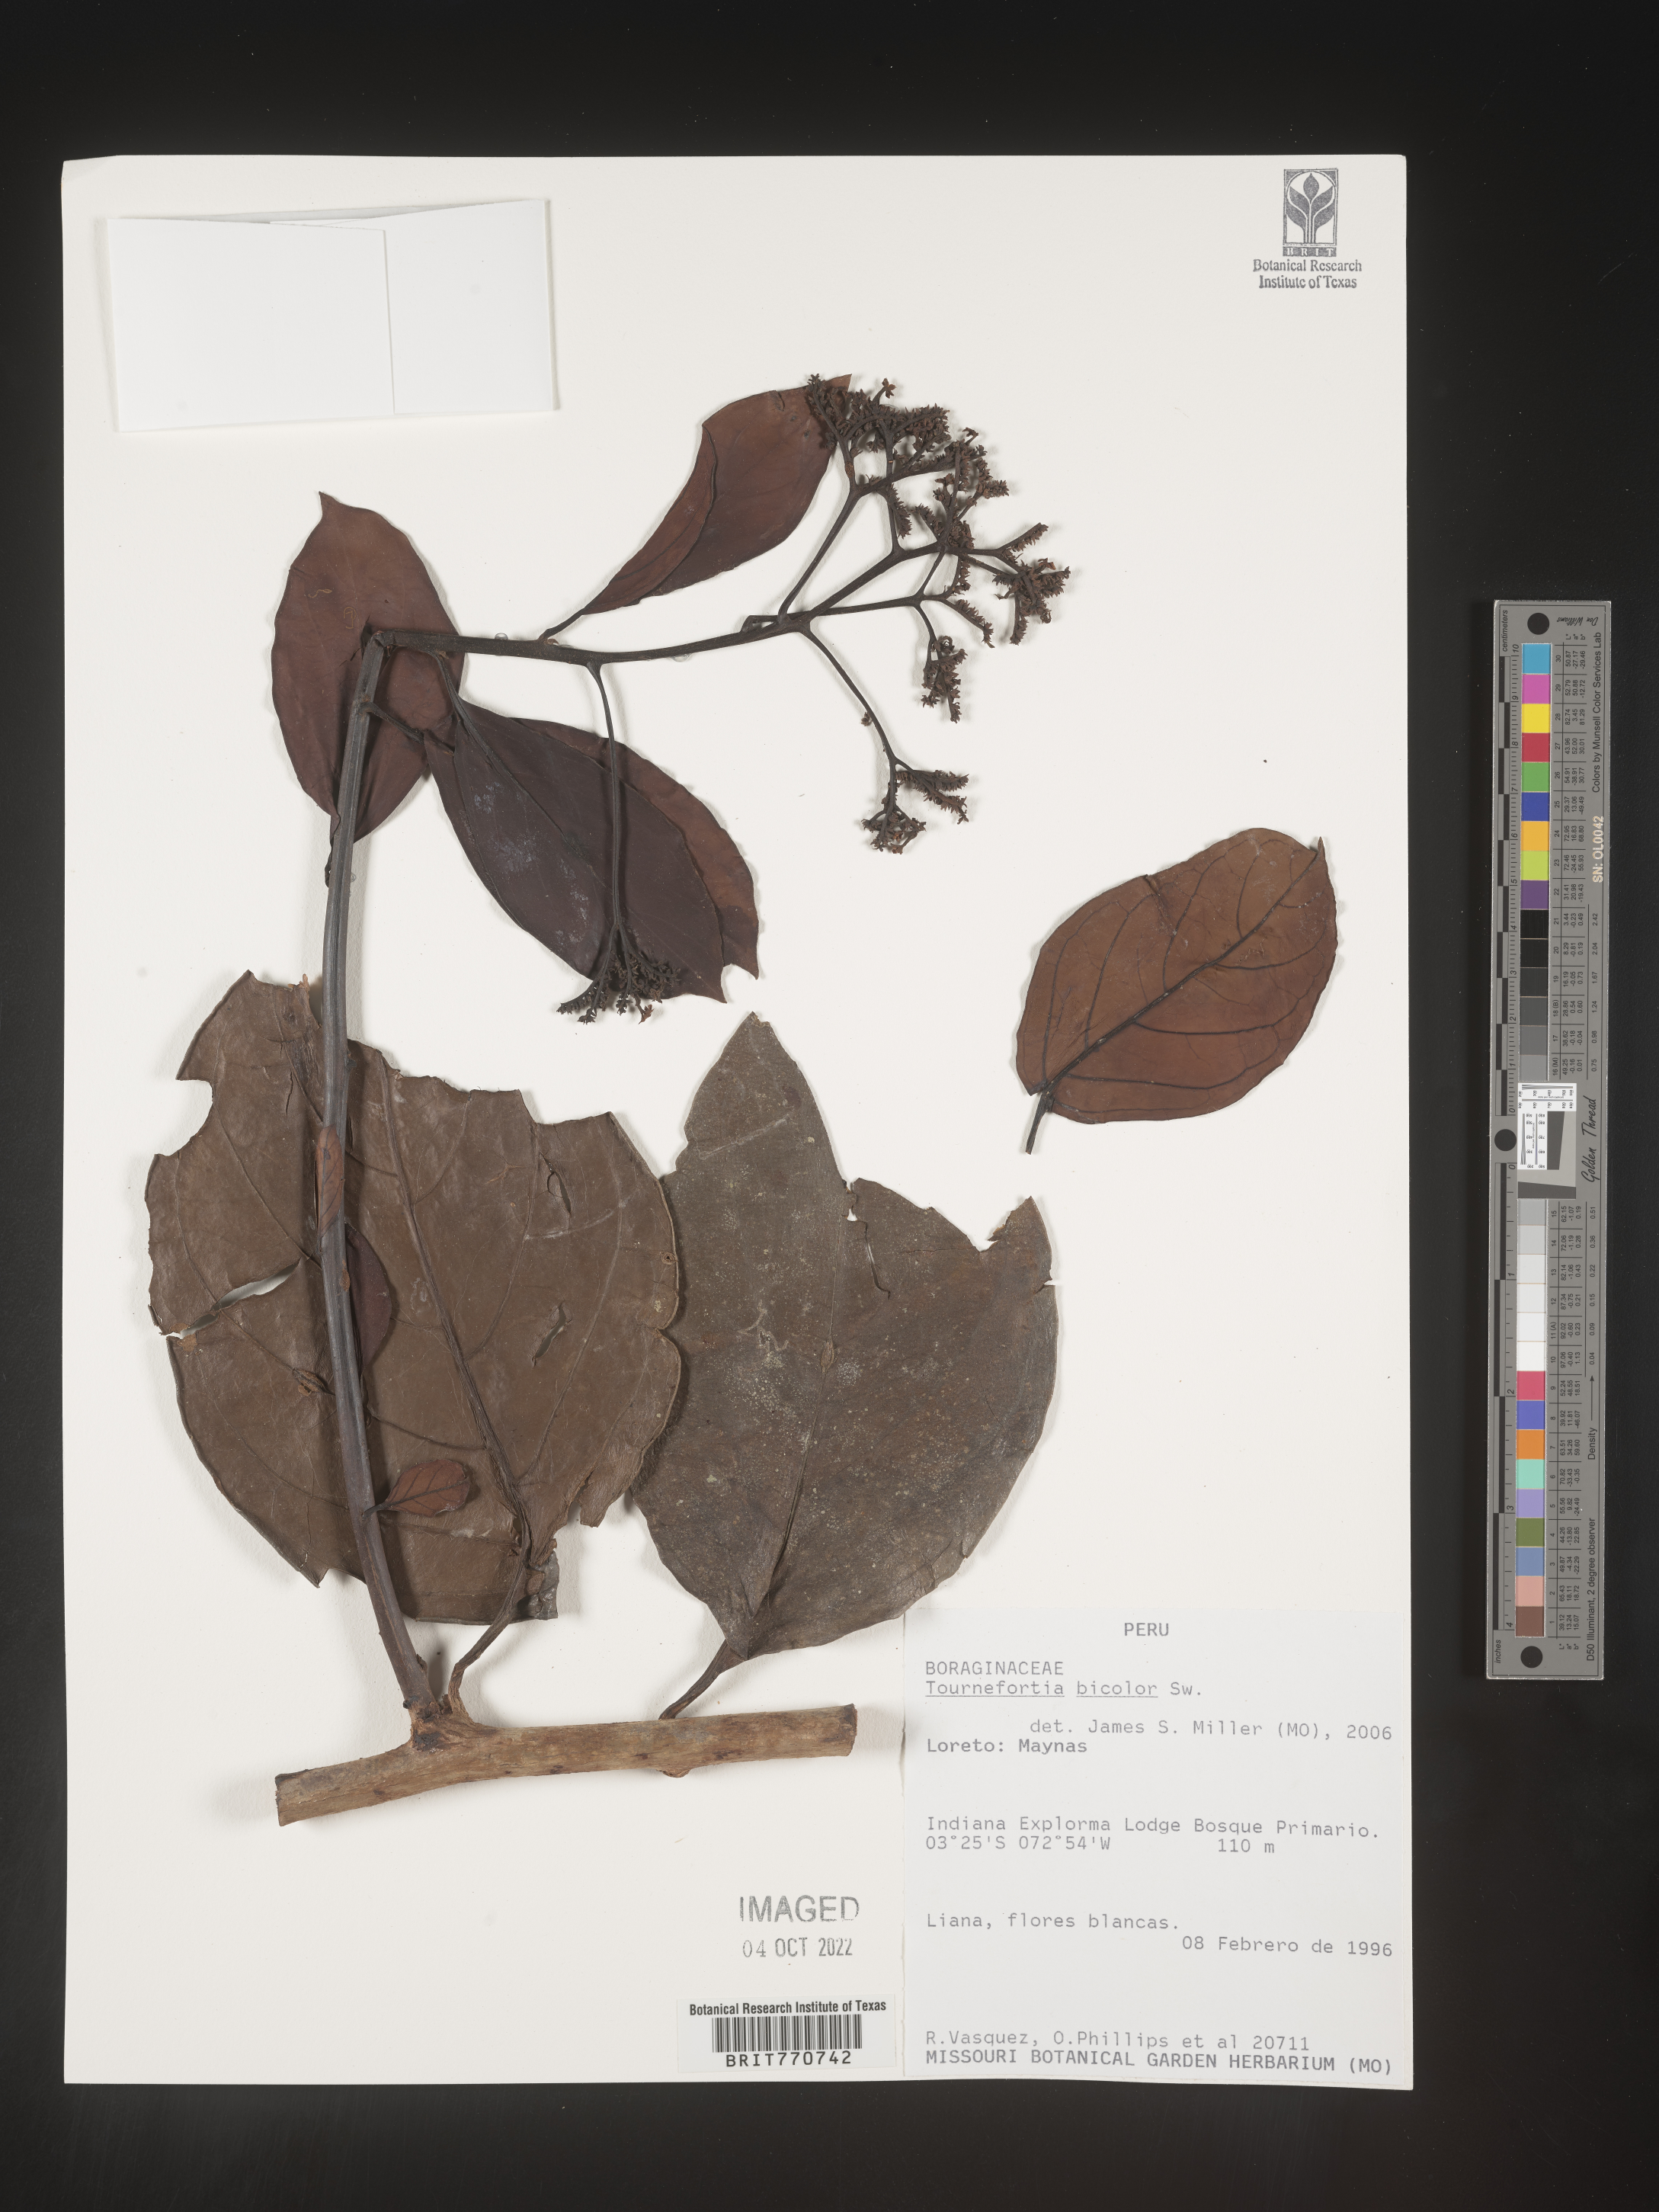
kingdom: Plantae
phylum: Tracheophyta
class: Magnoliopsida
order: Boraginales
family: Heliotropiaceae
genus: Tournefortia
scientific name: Tournefortia
